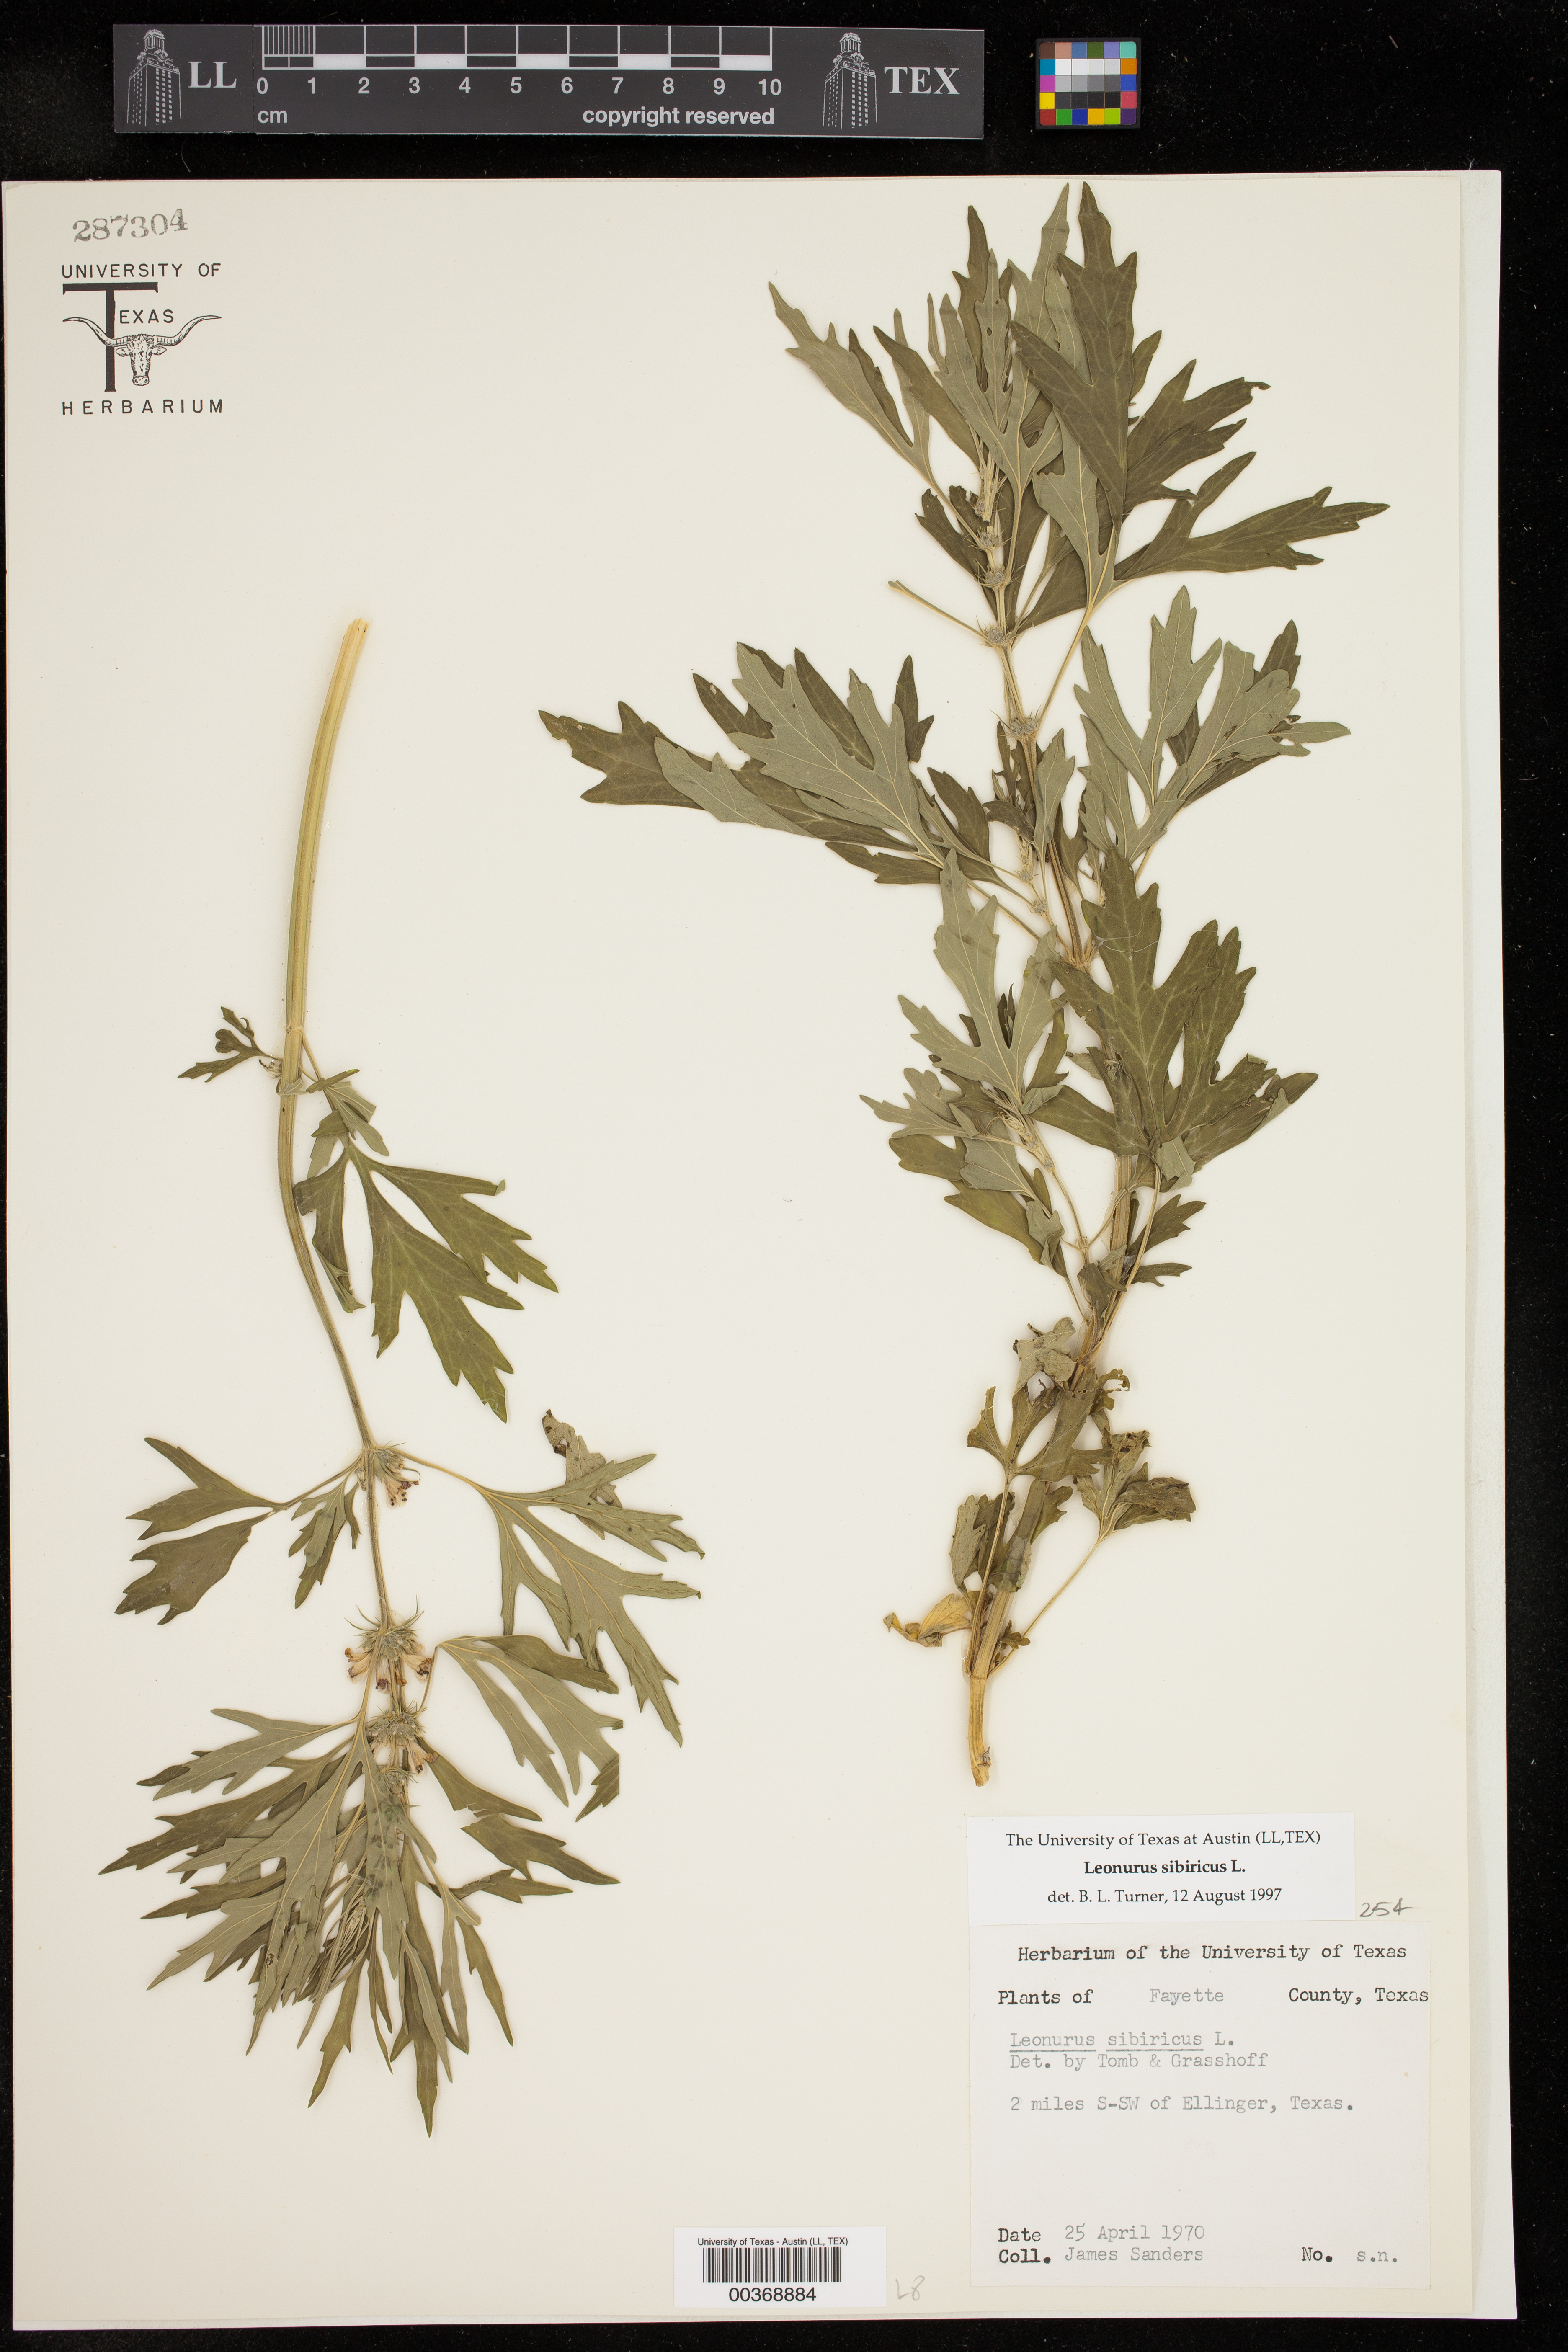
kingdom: Plantae
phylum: Tracheophyta
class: Magnoliopsida
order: Lamiales
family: Lamiaceae
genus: Leonurus
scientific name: Leonurus sibiricus
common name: Honeyweed
